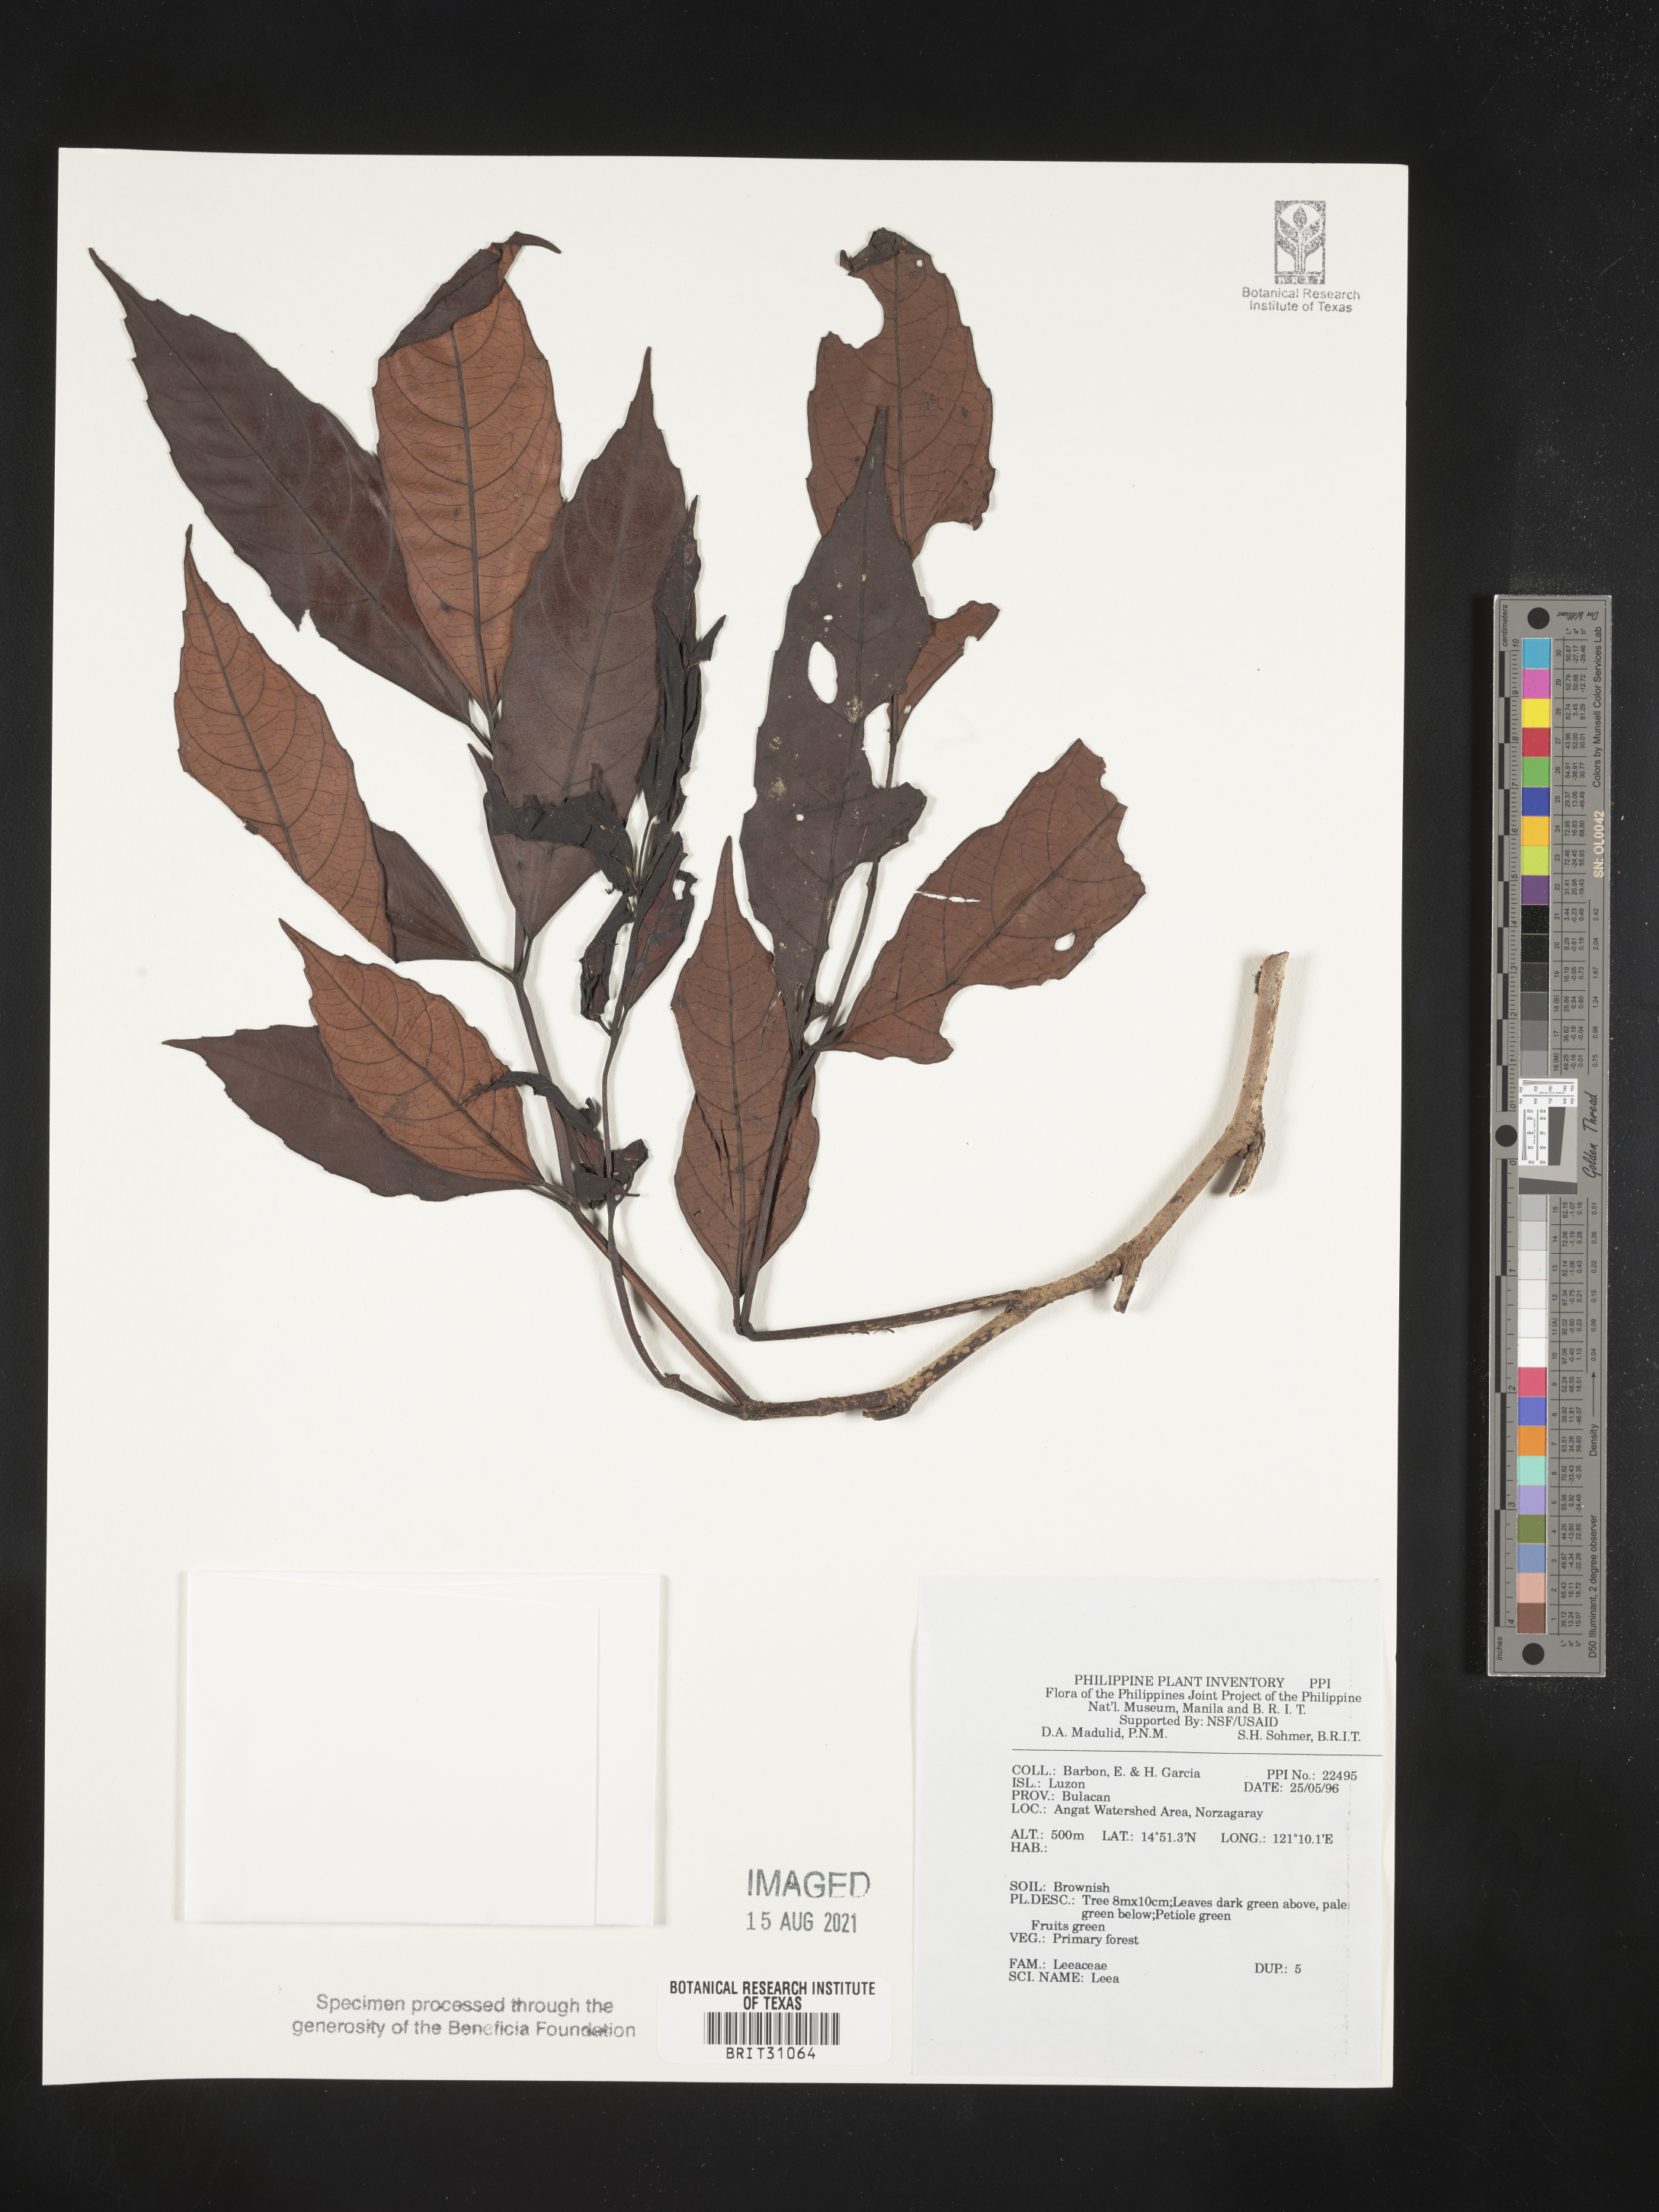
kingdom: Plantae
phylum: Tracheophyta
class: Magnoliopsida
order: Vitales
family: Vitaceae
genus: Leea
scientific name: Leea
